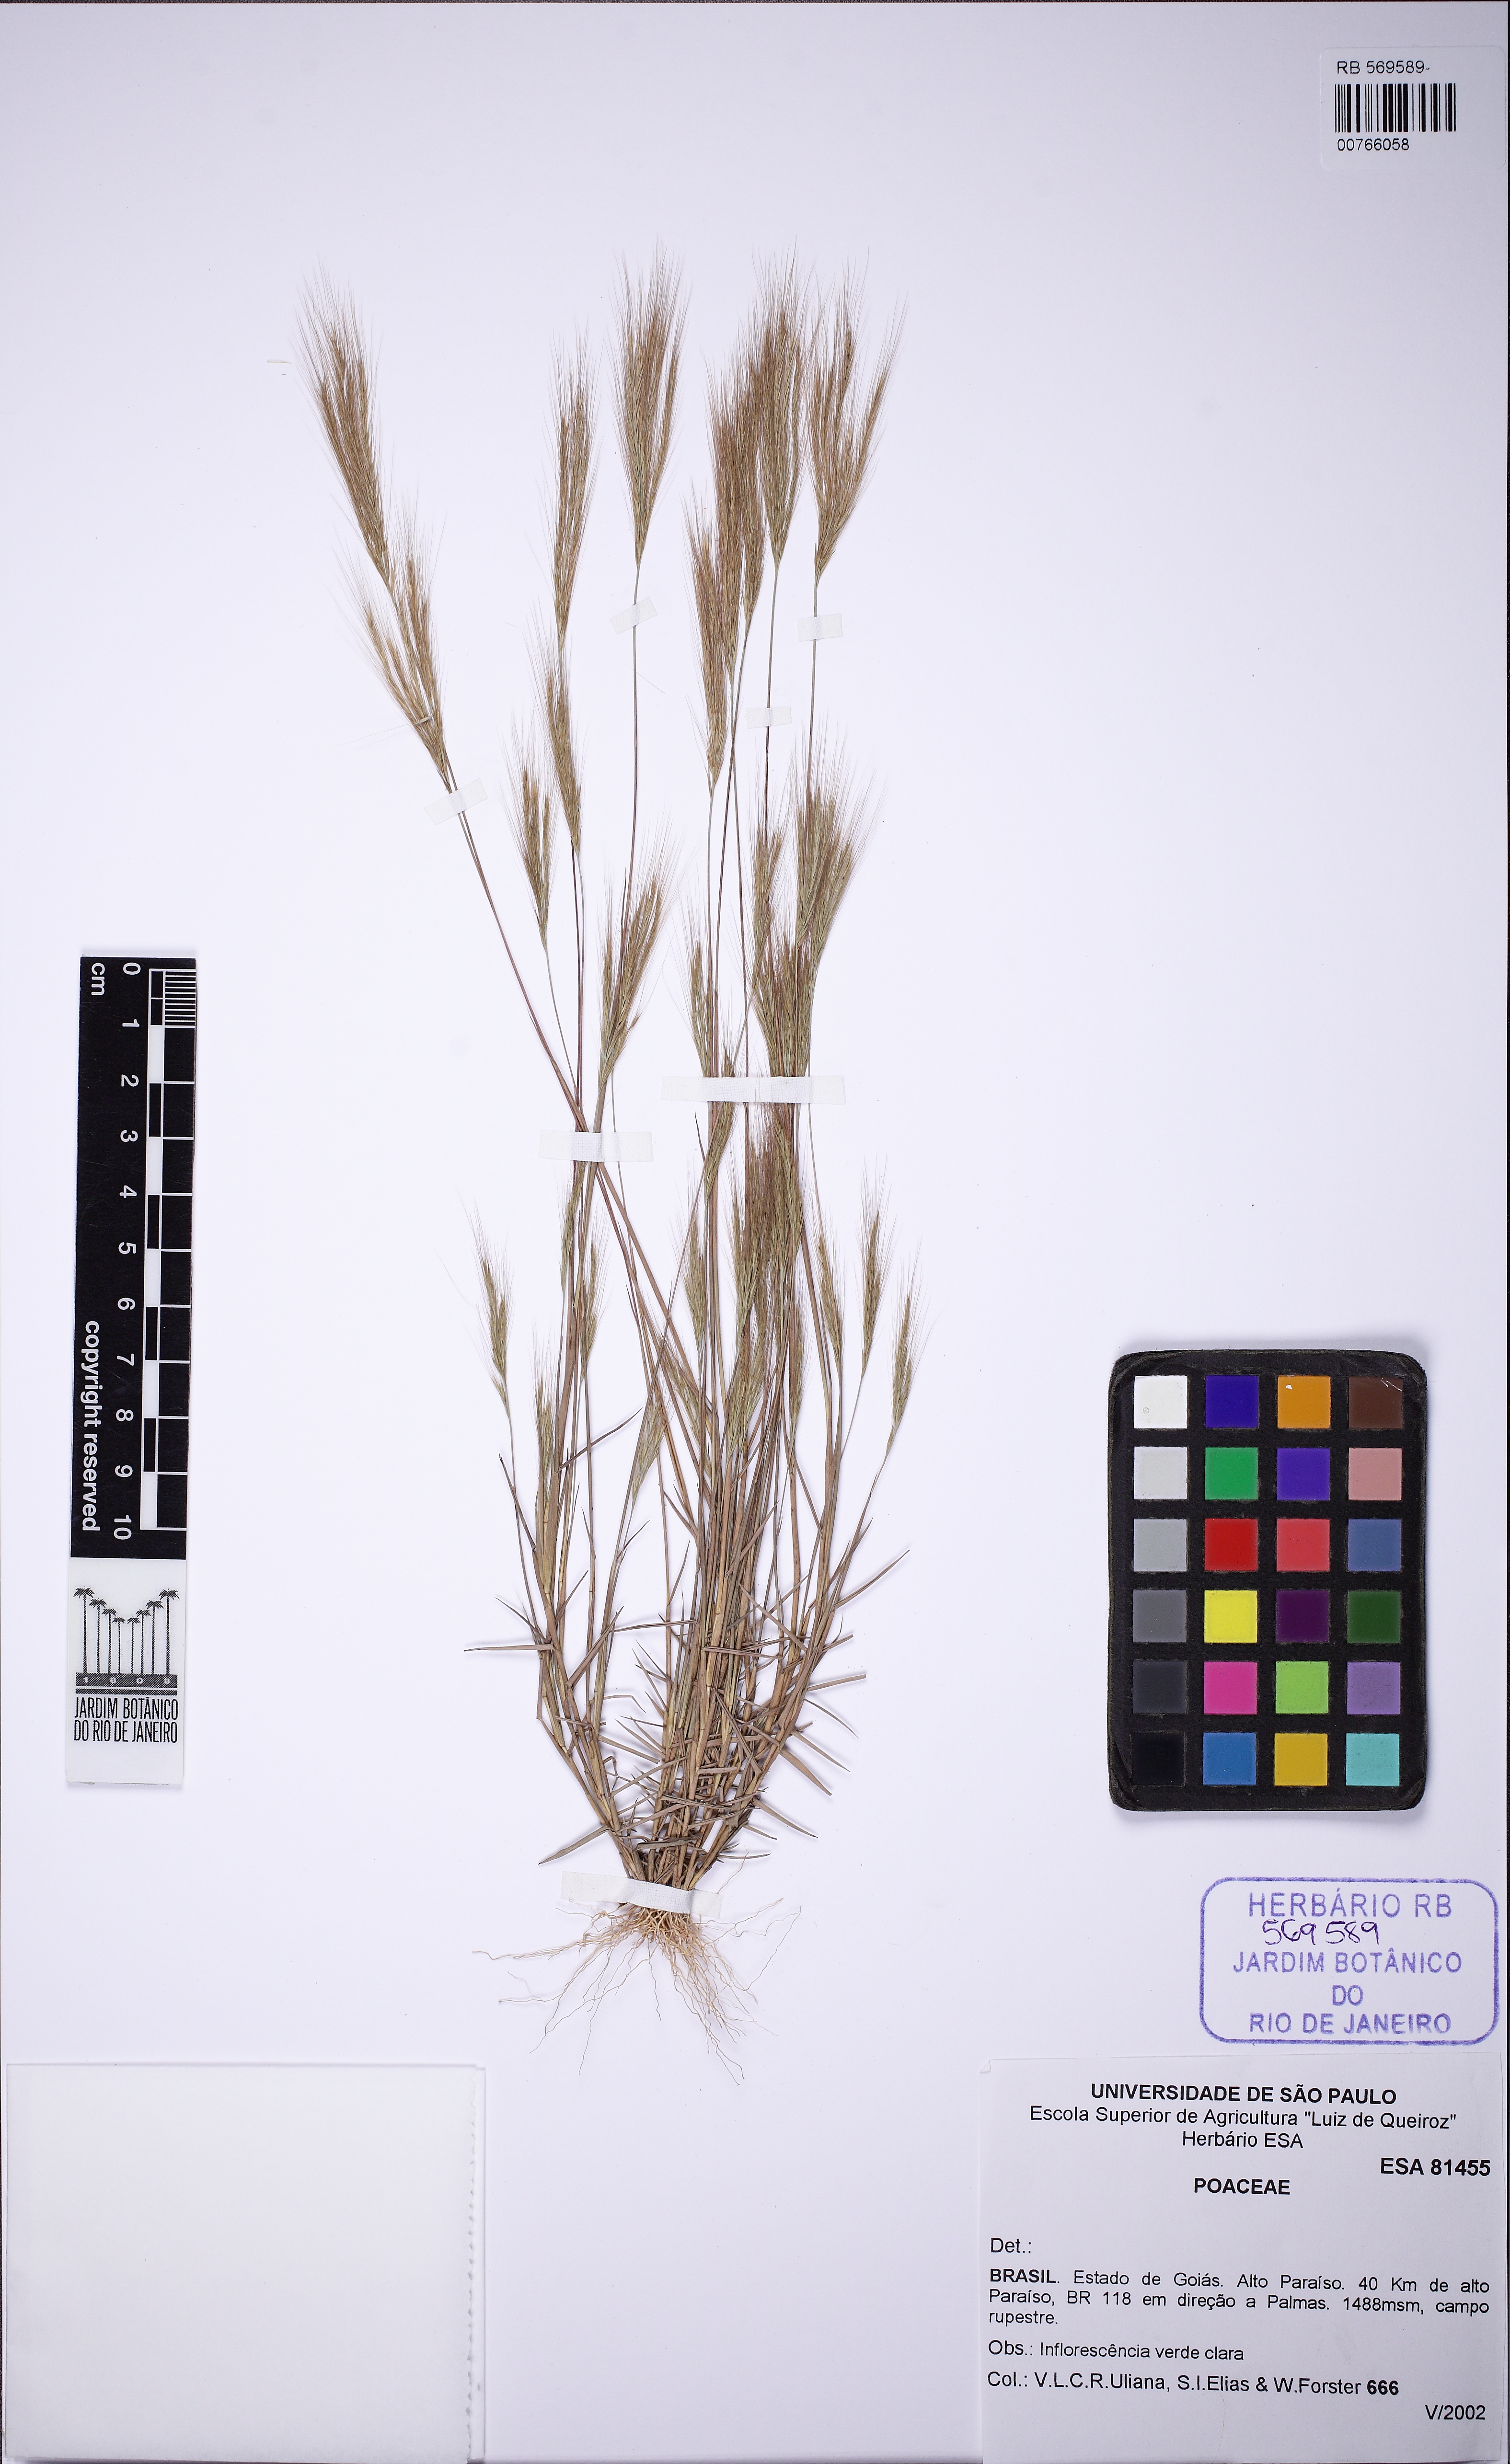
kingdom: Plantae
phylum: Tracheophyta
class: Liliopsida
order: Poales
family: Poaceae
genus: Gymnopogon
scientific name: Gymnopogon foliosus
